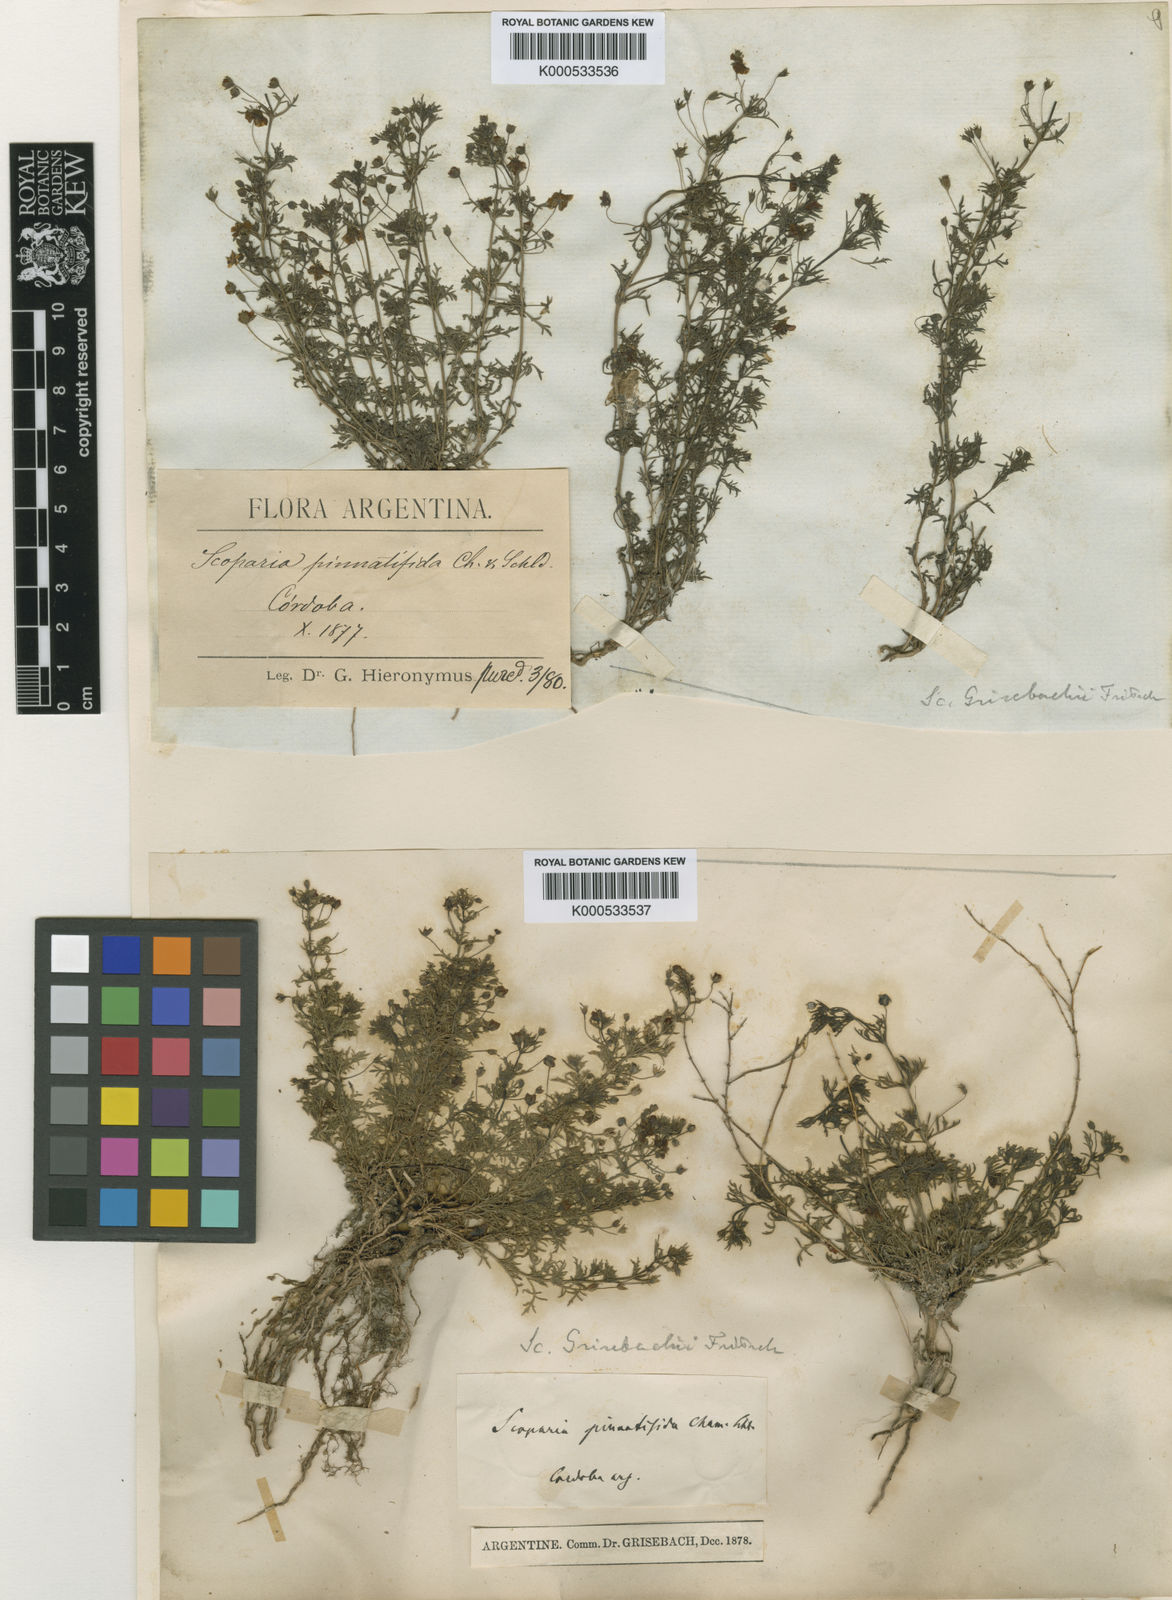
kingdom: Plantae
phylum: Tracheophyta
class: Magnoliopsida
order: Lamiales
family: Plantaginaceae
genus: Scoparia
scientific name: Scoparia montevidensis
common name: Broomwort
